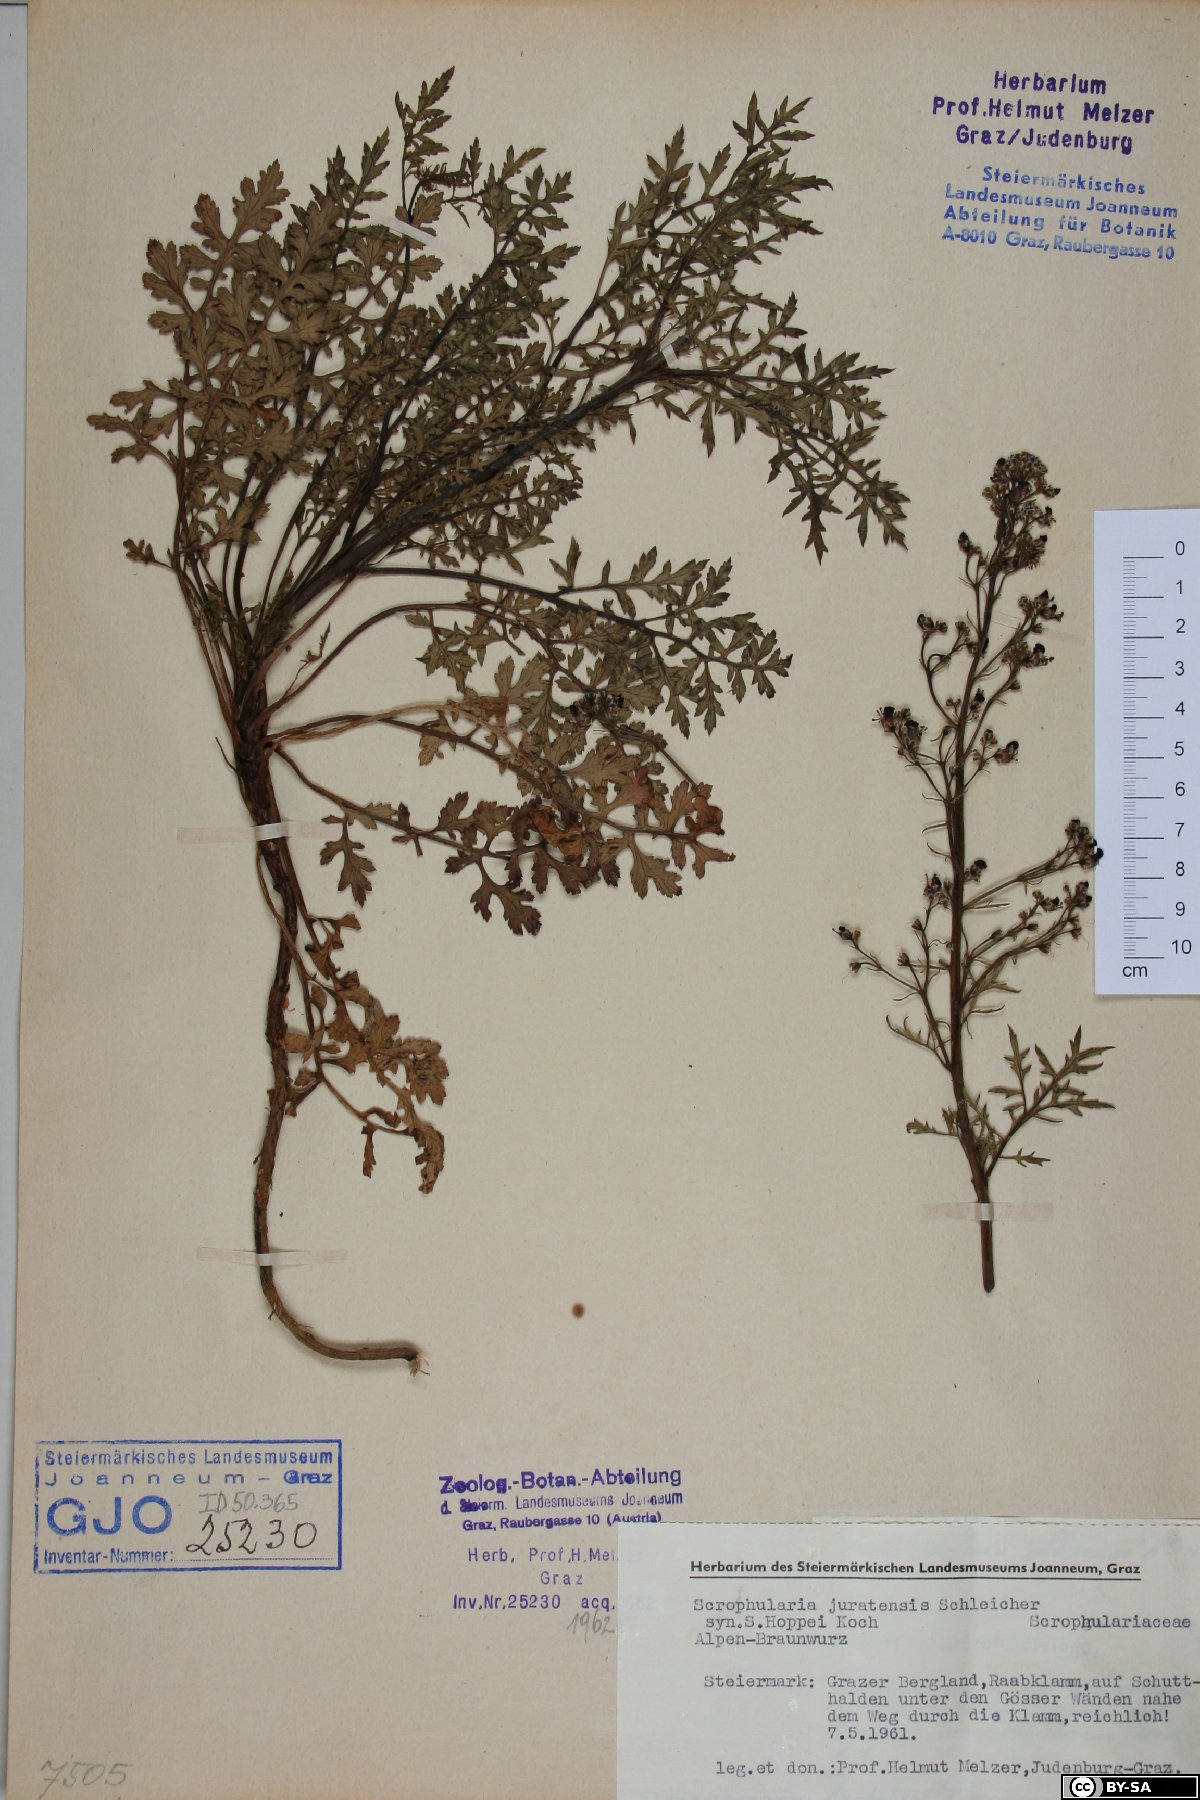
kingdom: Plantae
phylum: Tracheophyta
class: Magnoliopsida
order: Lamiales
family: Scrophulariaceae
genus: Scrophularia
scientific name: Scrophularia canina
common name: French figwort
